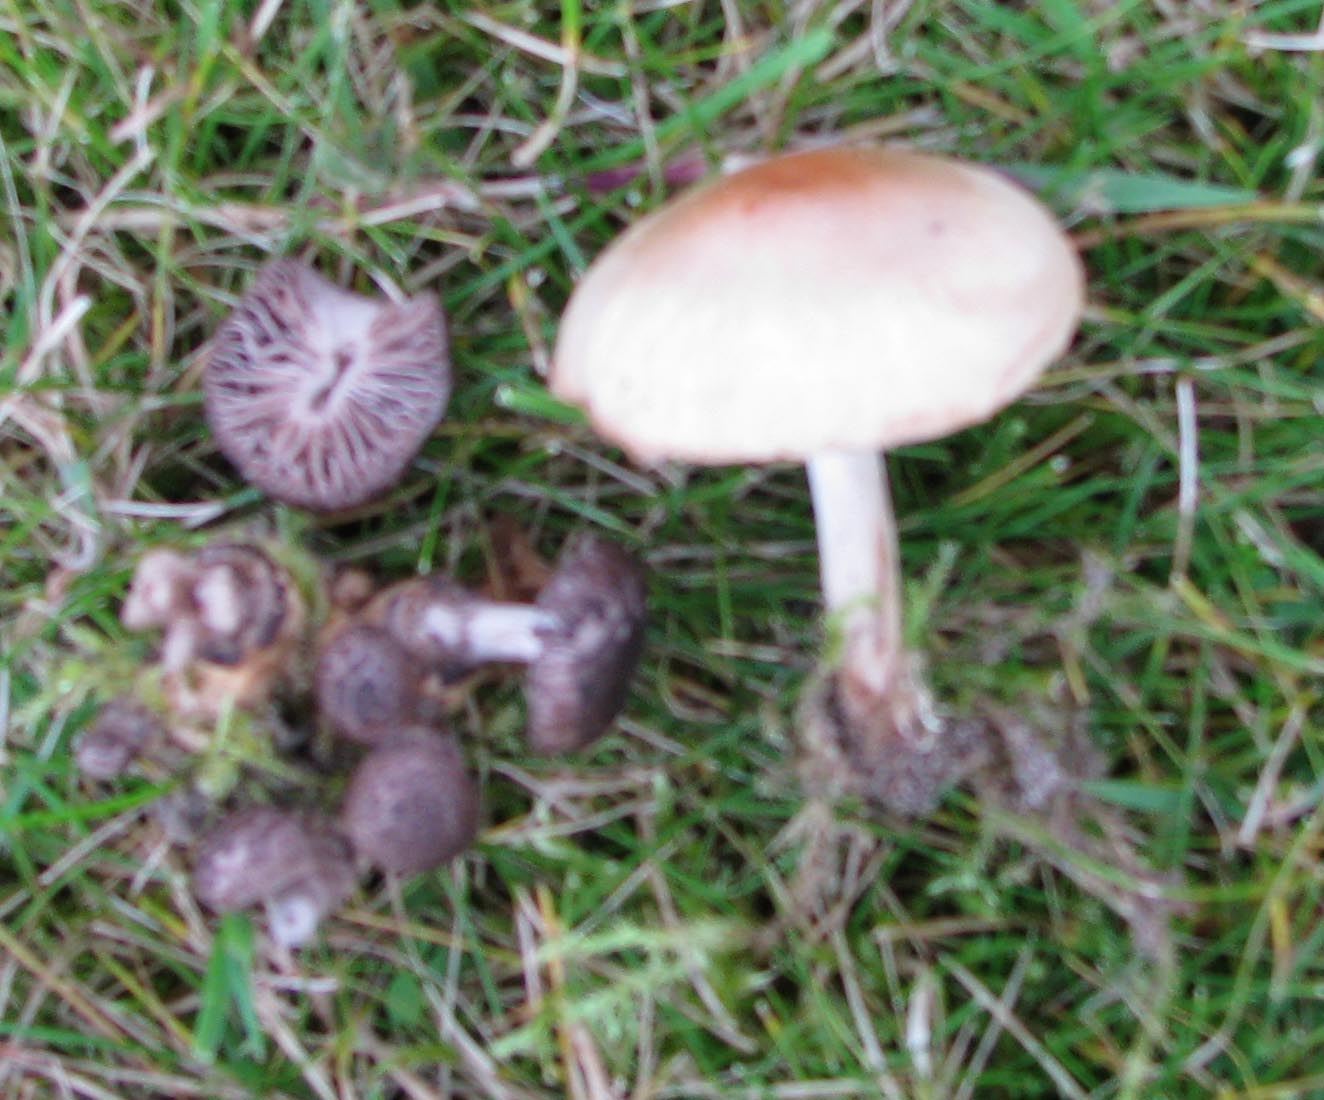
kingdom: Fungi
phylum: Basidiomycota
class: Agaricomycetes
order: Agaricales
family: Squamanitaceae
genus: Dissoderma
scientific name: Dissoderma odoratum
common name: vellugtende knoldfod
